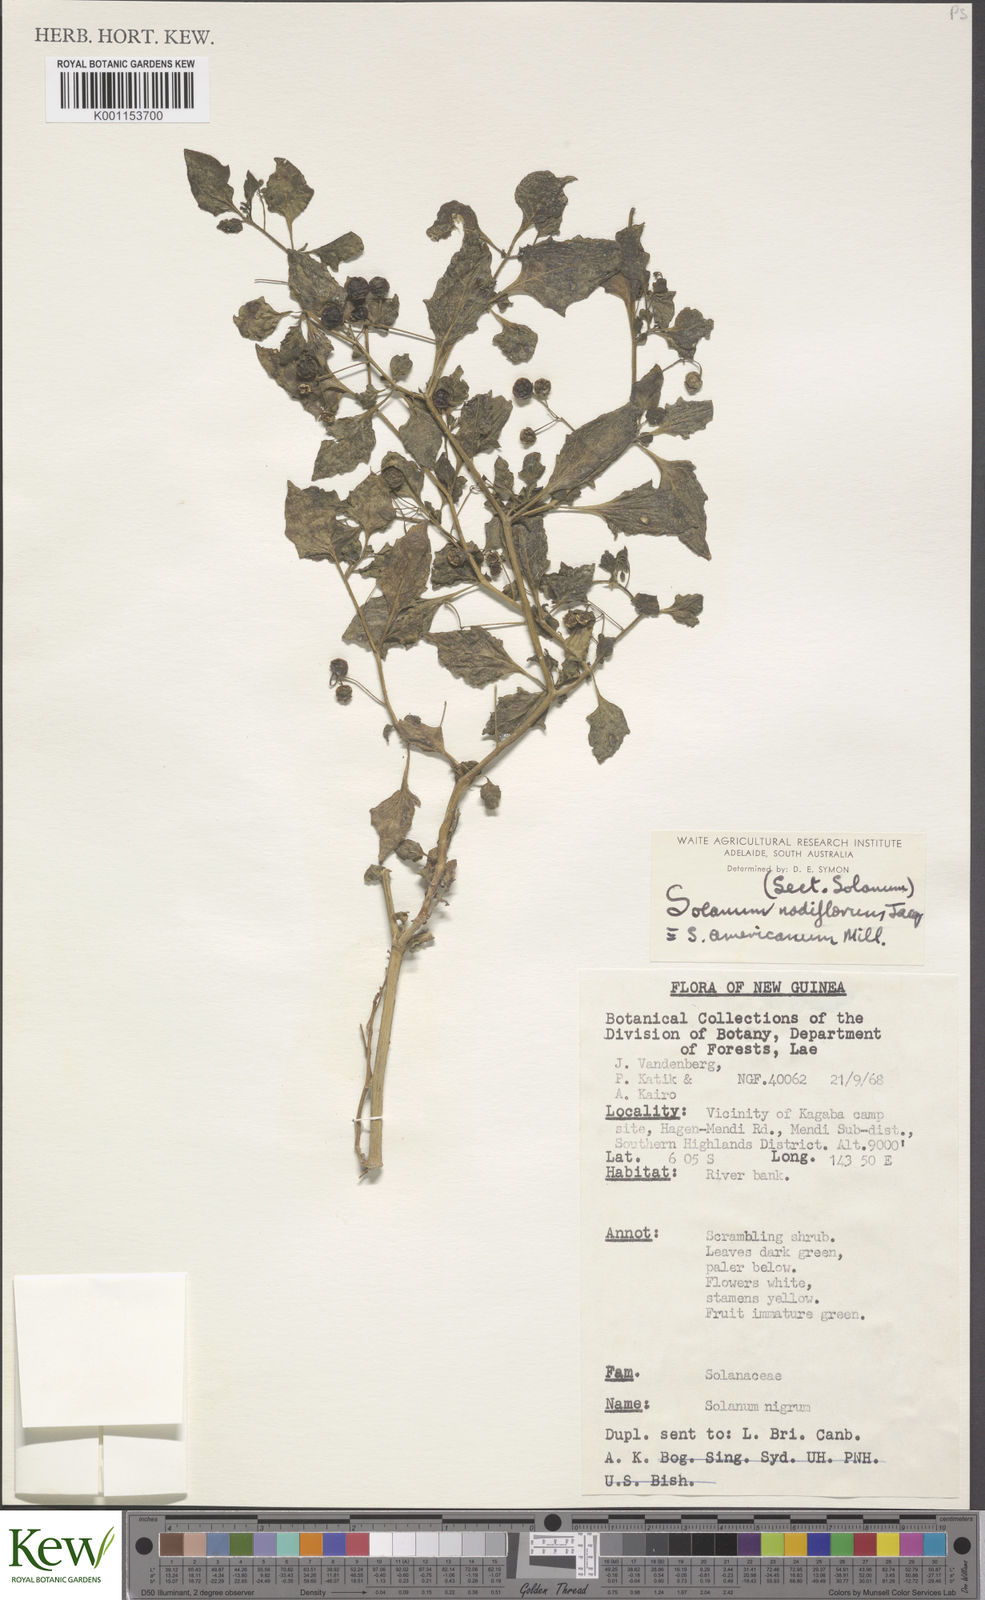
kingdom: Plantae
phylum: Tracheophyta
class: Magnoliopsida
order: Solanales
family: Solanaceae
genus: Solanum
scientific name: Solanum americanum
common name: American black nightshade
